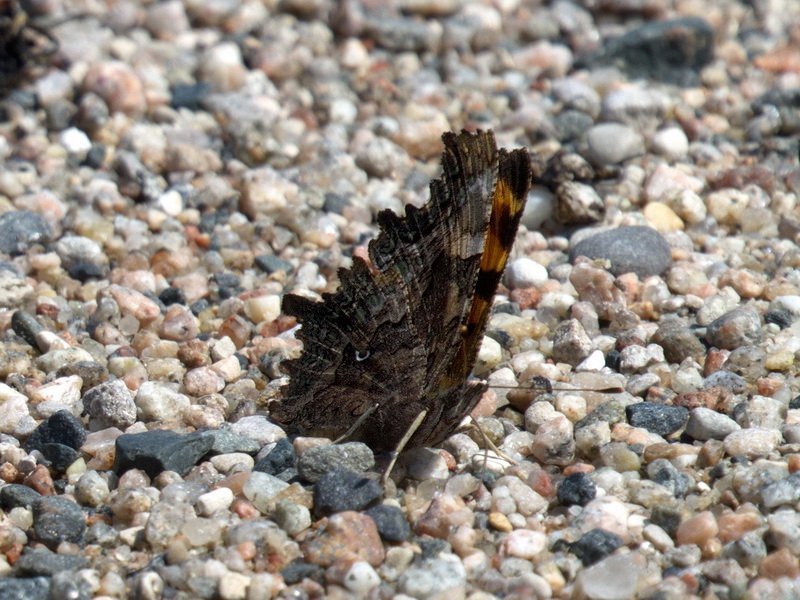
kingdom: Animalia
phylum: Arthropoda
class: Insecta
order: Lepidoptera
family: Nymphalidae
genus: Polygonia
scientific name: Polygonia faunus
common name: Green Comma
